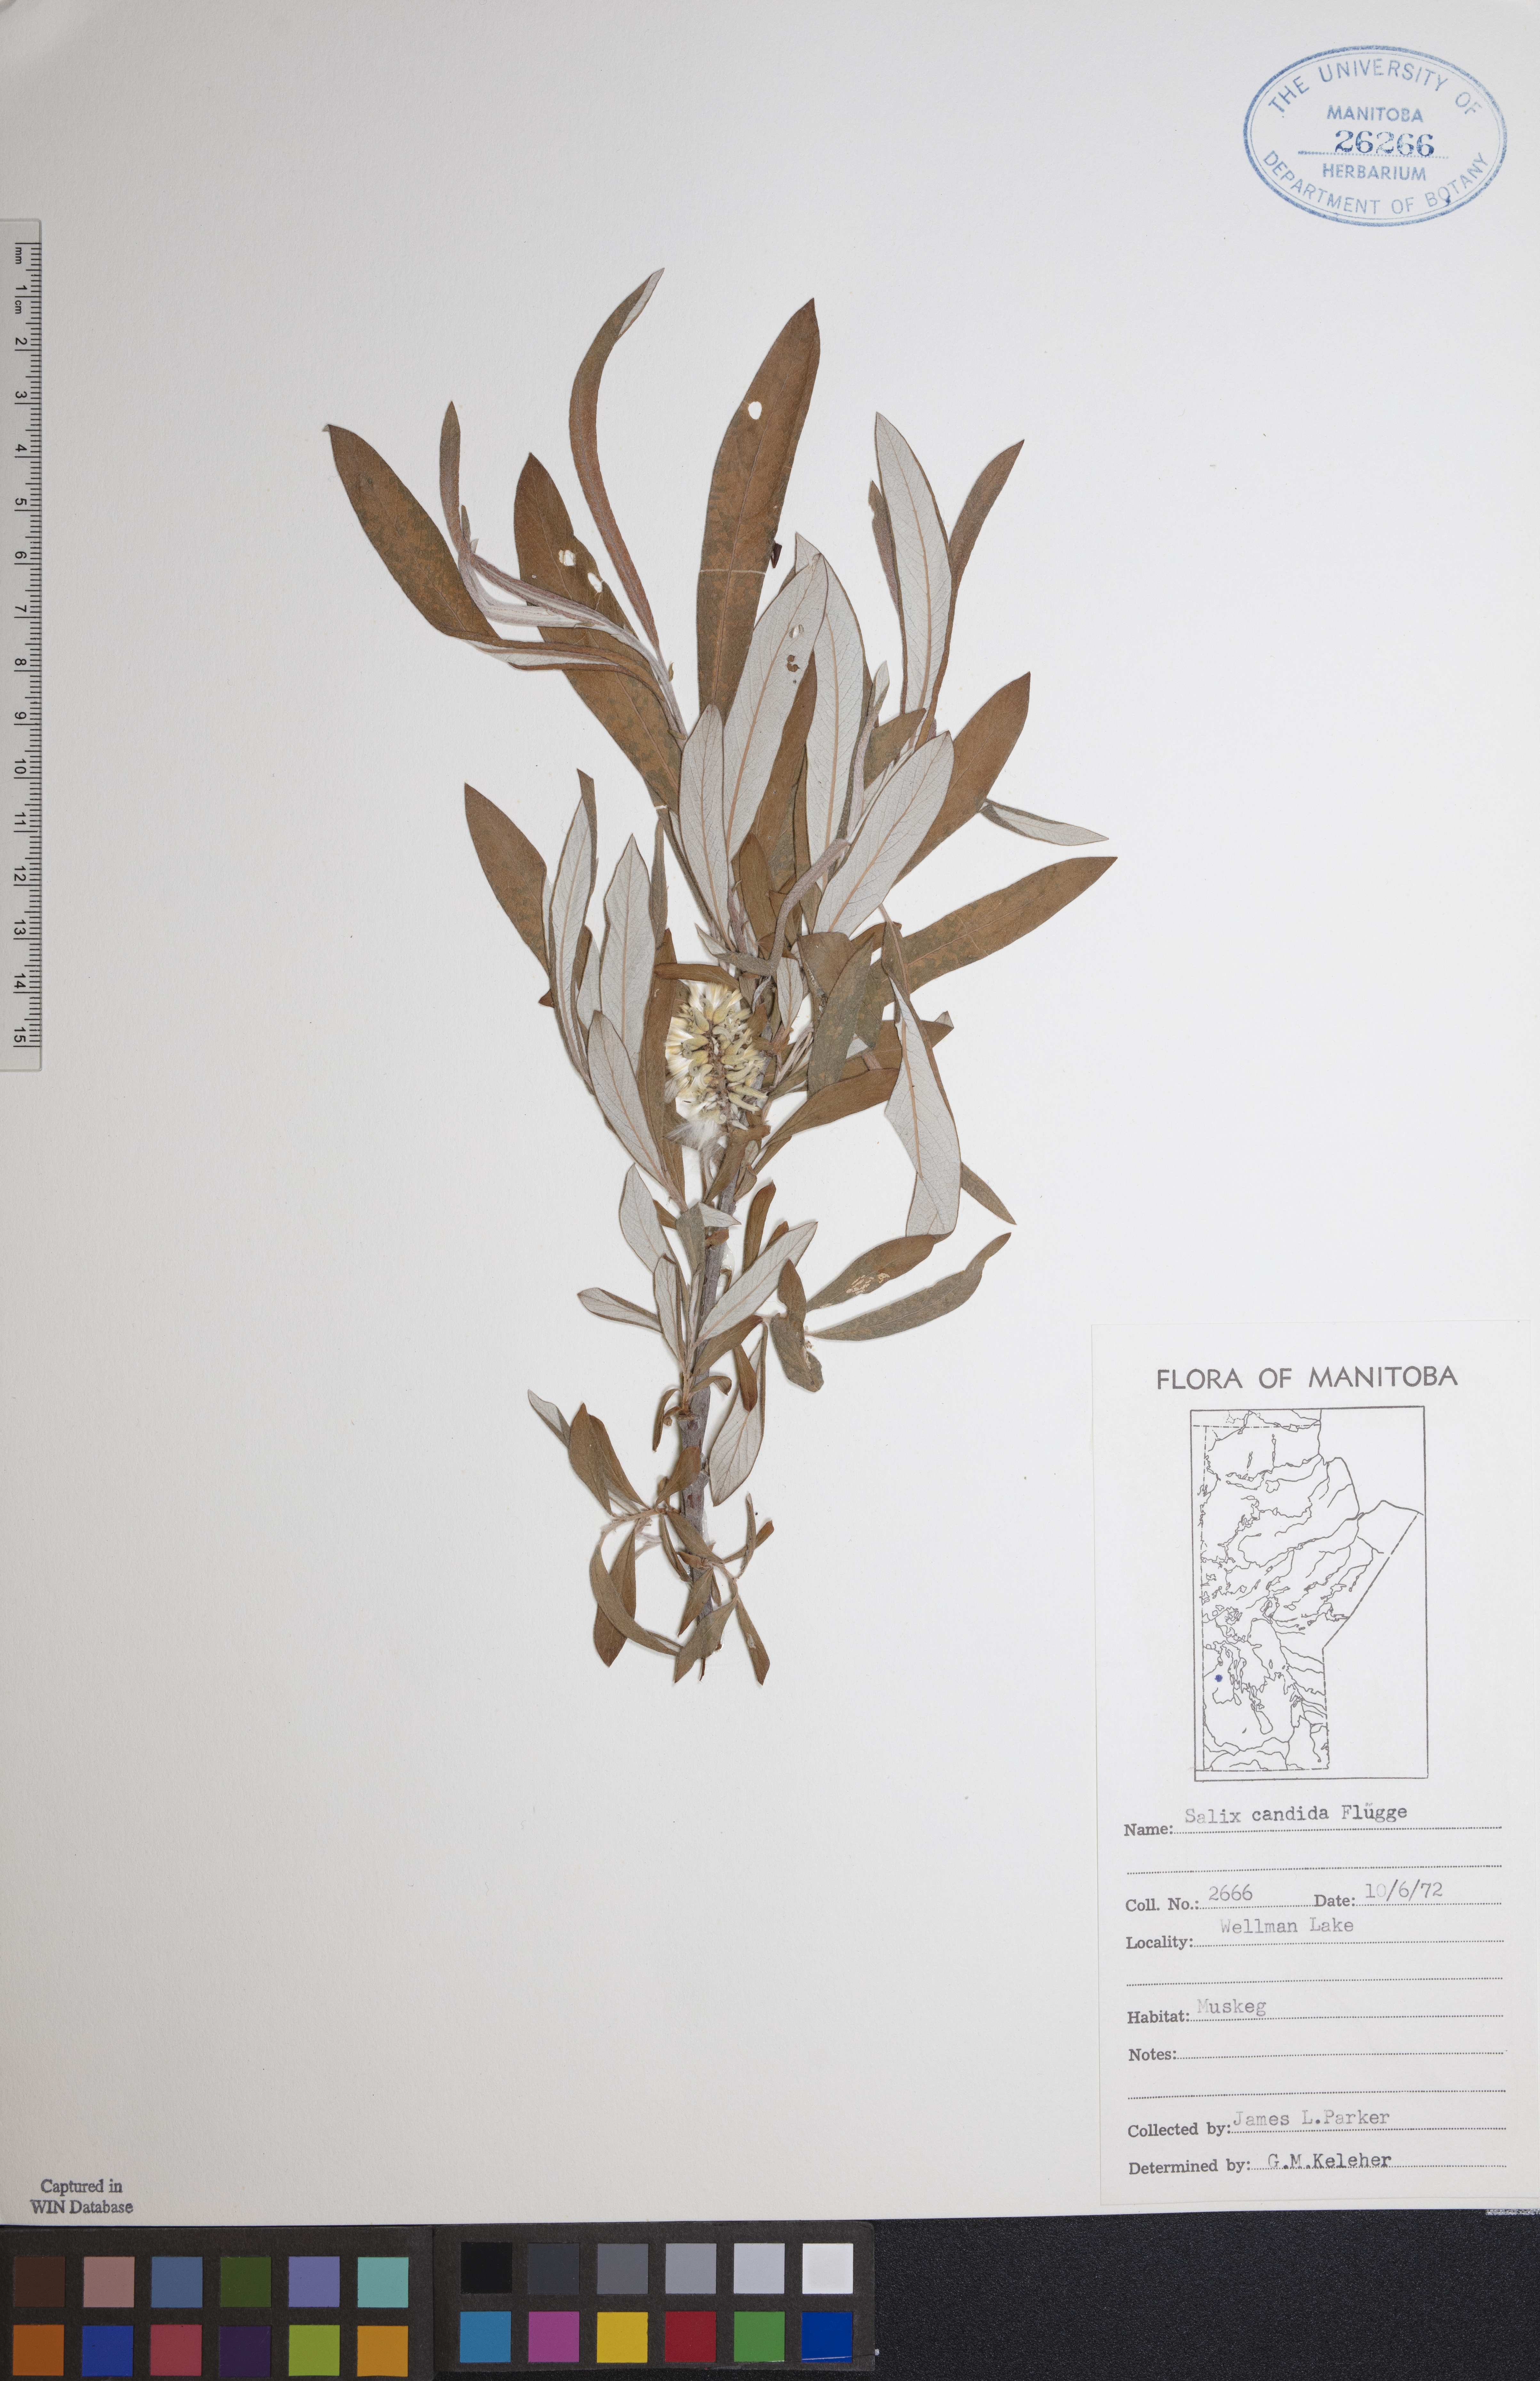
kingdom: Plantae
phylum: Tracheophyta
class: Magnoliopsida
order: Malpighiales
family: Salicaceae
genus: Salix
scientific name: Salix candida
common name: Hoary willow
